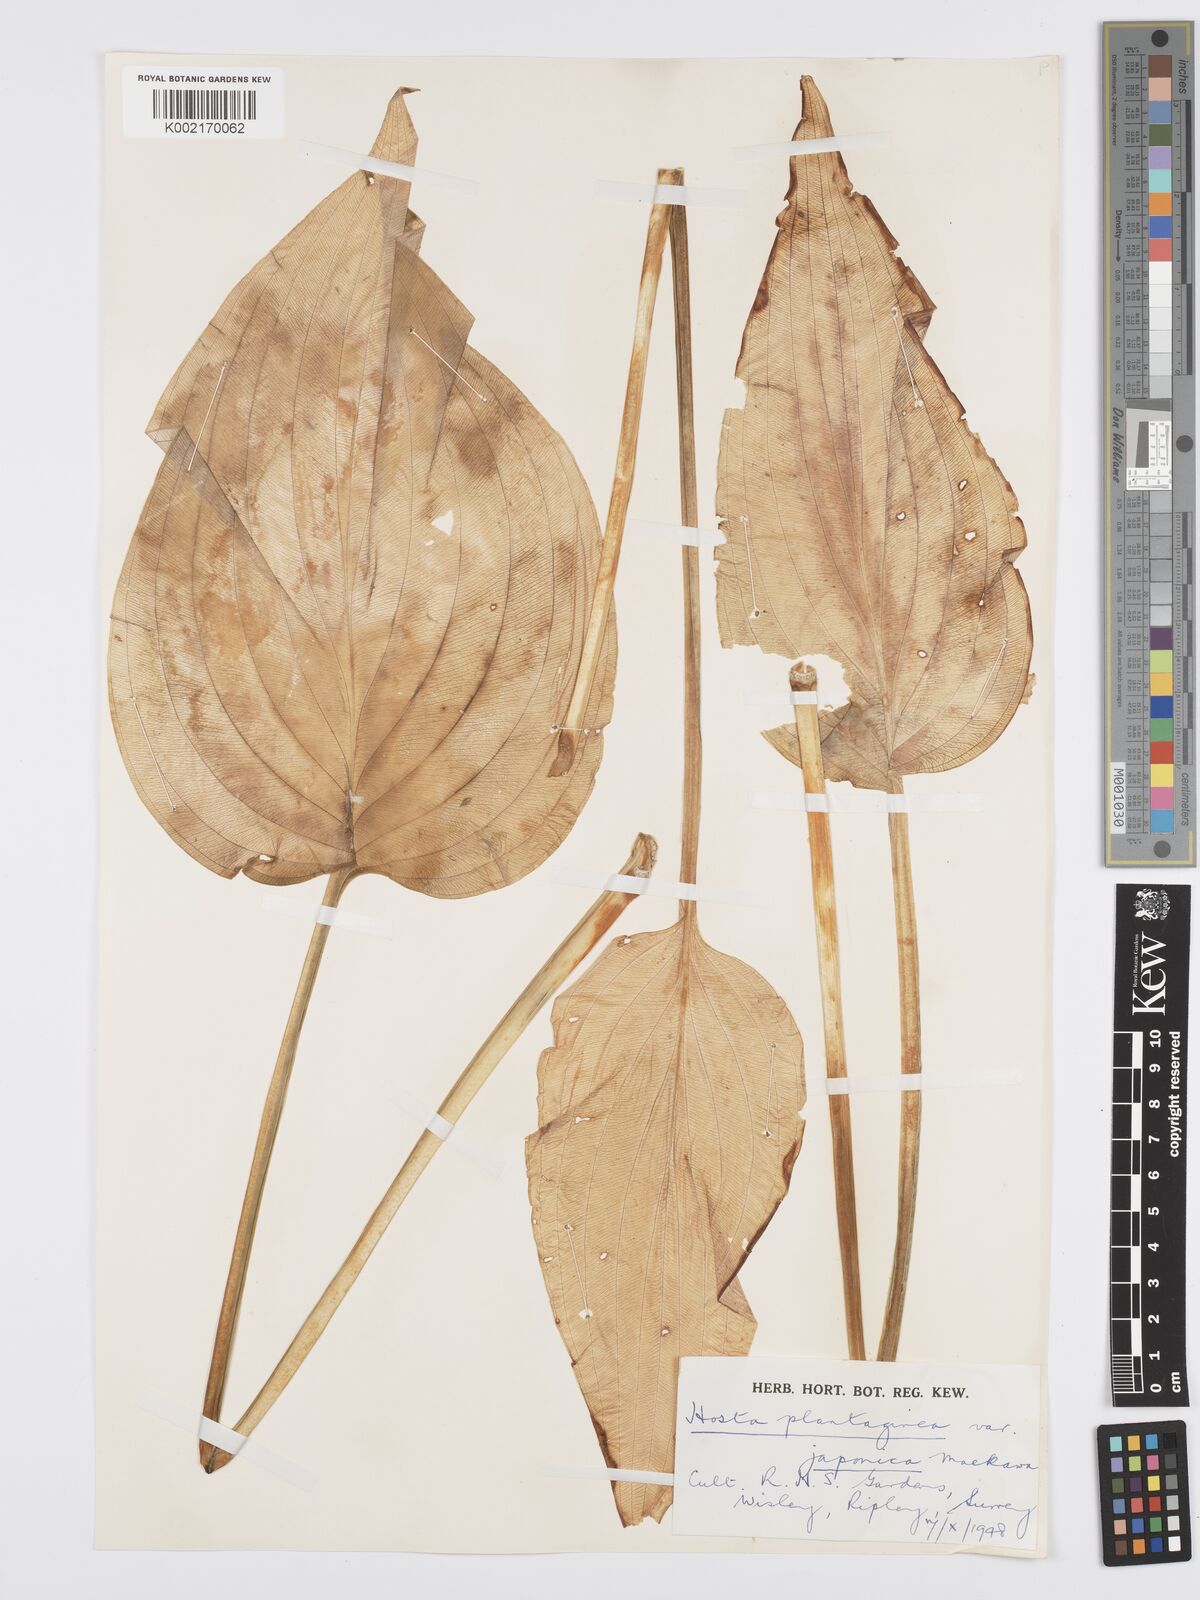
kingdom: Plantae
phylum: Tracheophyta
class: Liliopsida
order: Asparagales
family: Asparagaceae
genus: Hosta
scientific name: Hosta plantaginea
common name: August-lily
